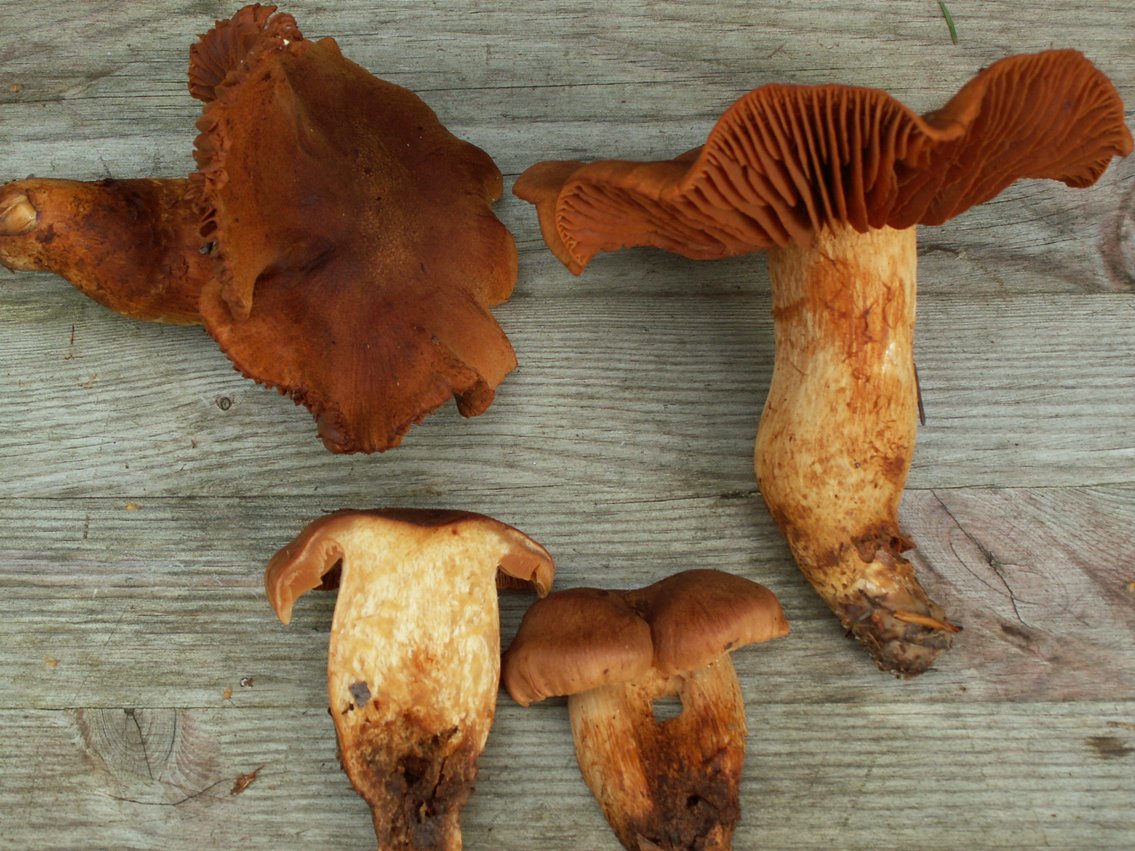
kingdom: Fungi
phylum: Basidiomycota
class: Agaricomycetes
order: Agaricales
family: Cortinariaceae
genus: Cortinarius
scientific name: Cortinarius rubellus
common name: puklet gift-slørhat
